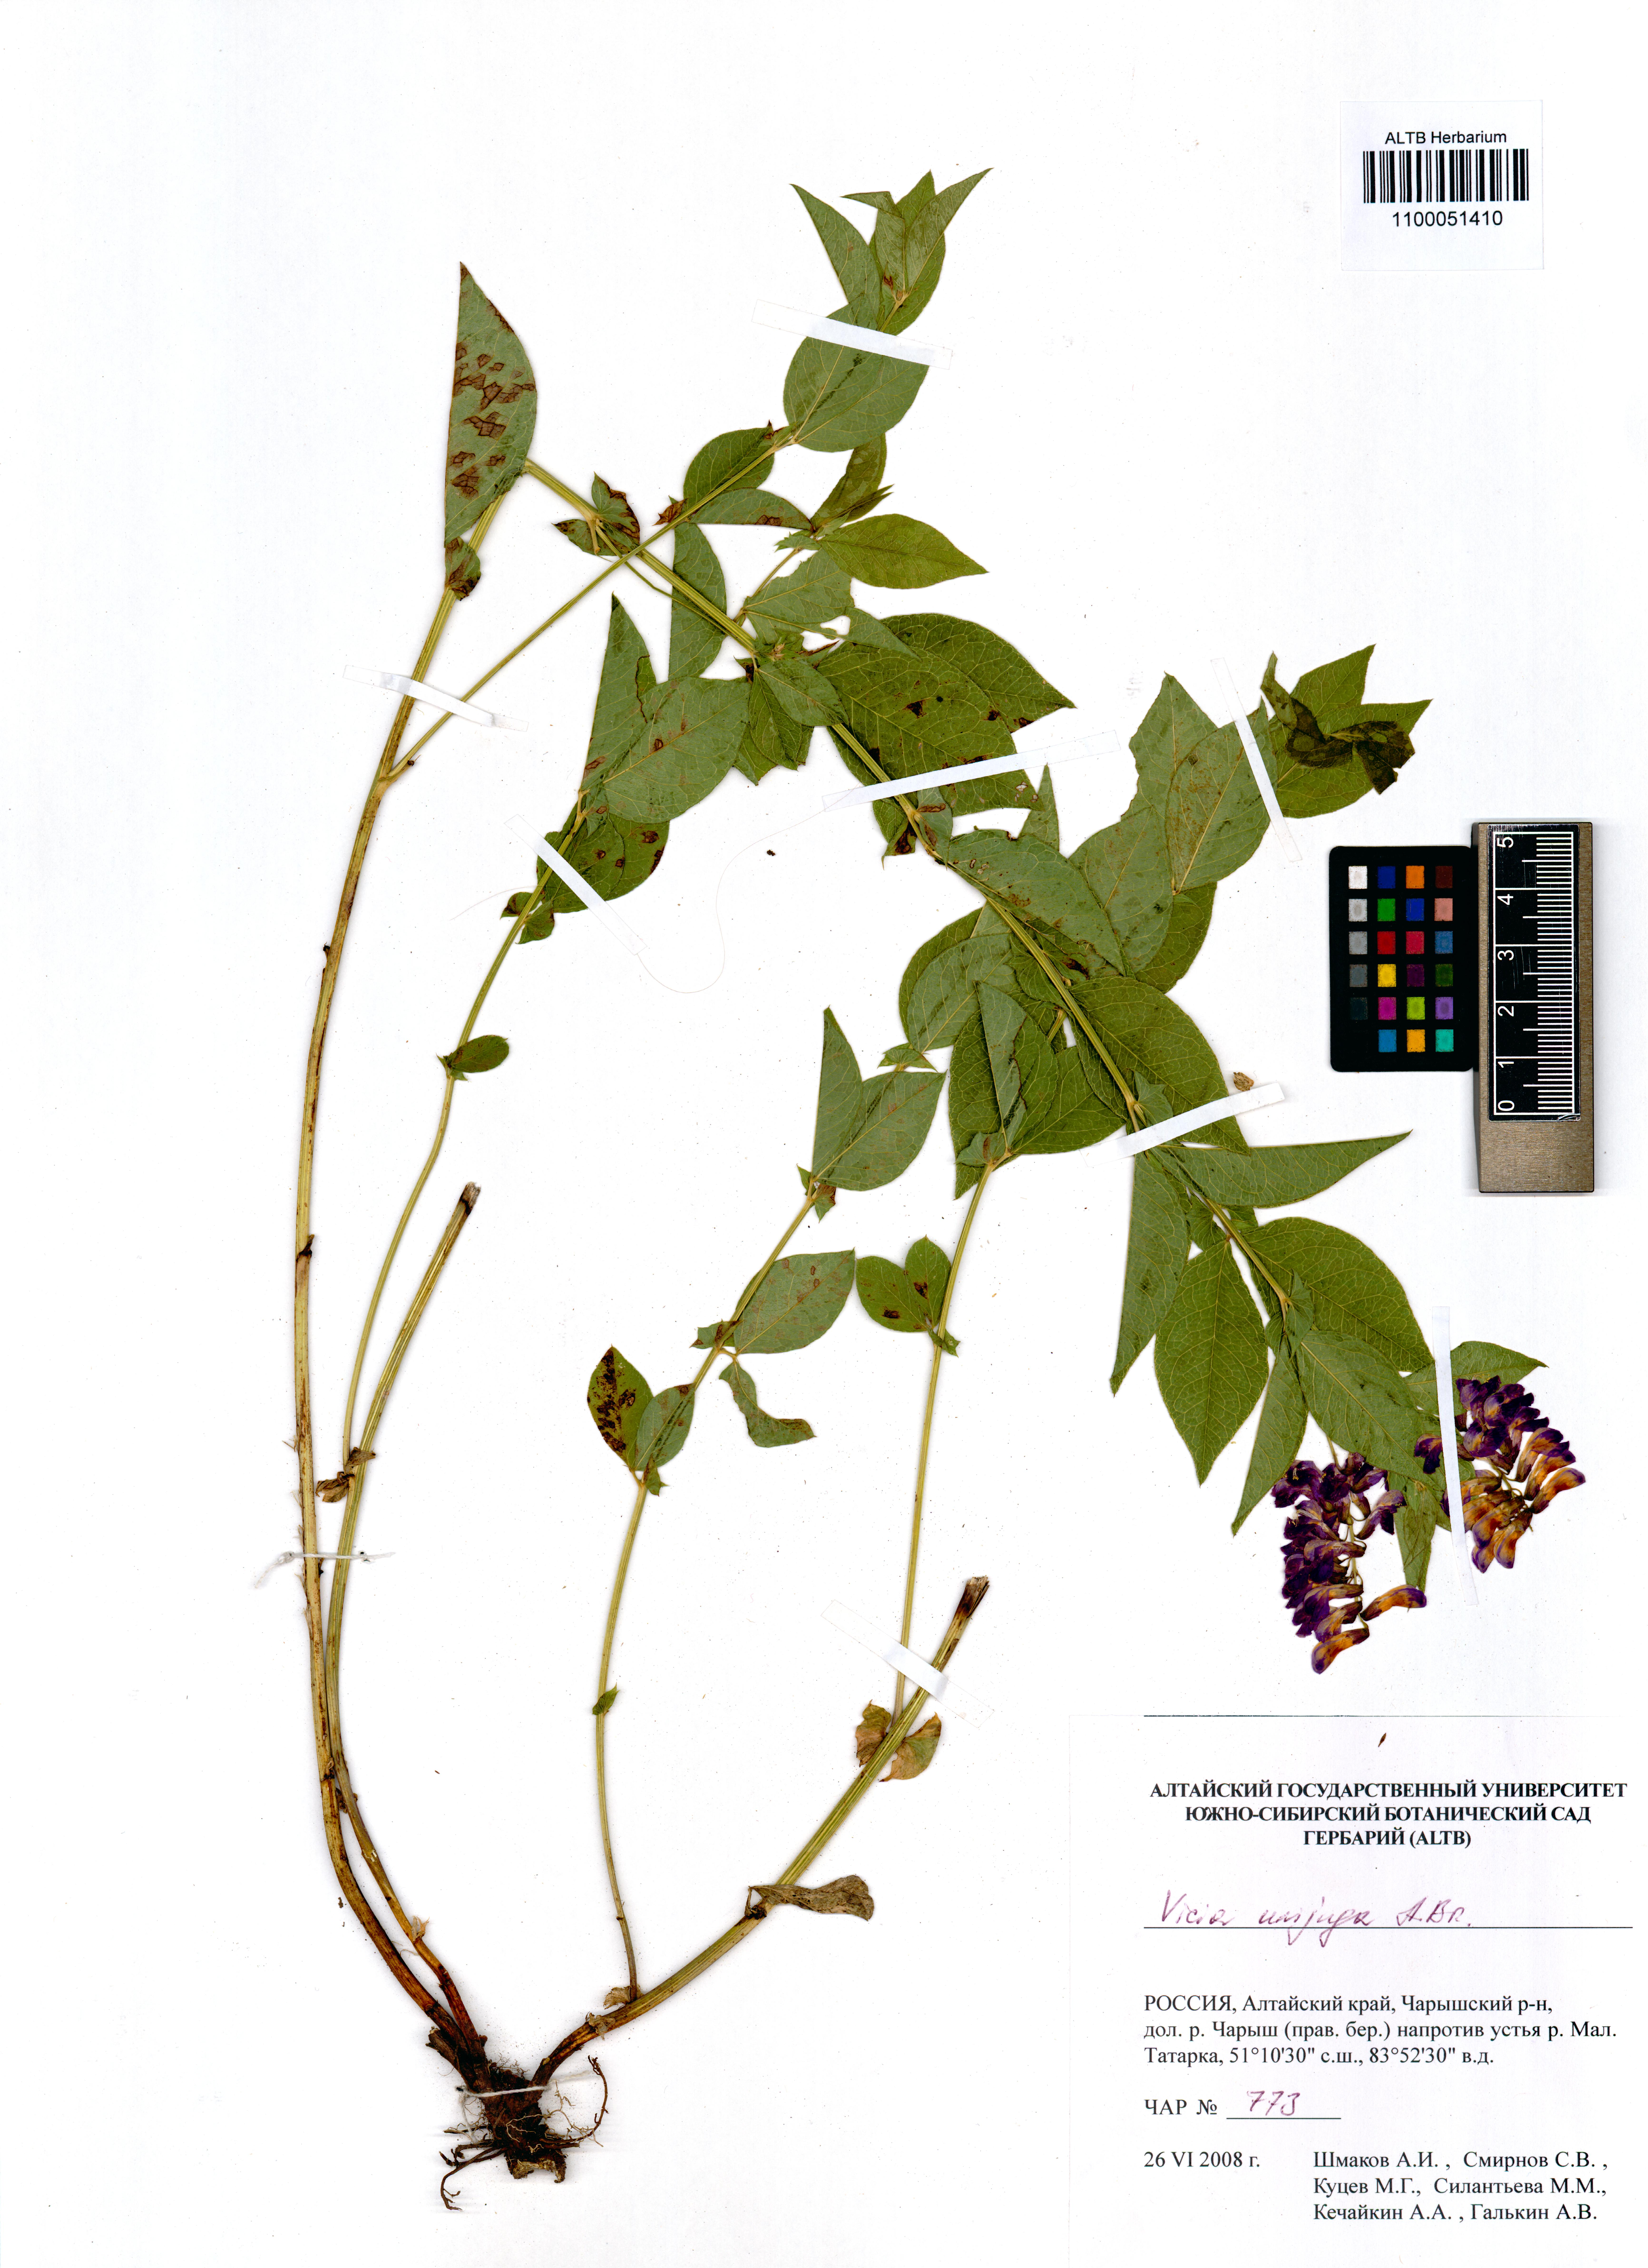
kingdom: Plantae
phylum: Tracheophyta
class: Magnoliopsida
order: Fabales
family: Fabaceae
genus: Vicia
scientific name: Vicia unijuga
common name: Two-leaf vetch
